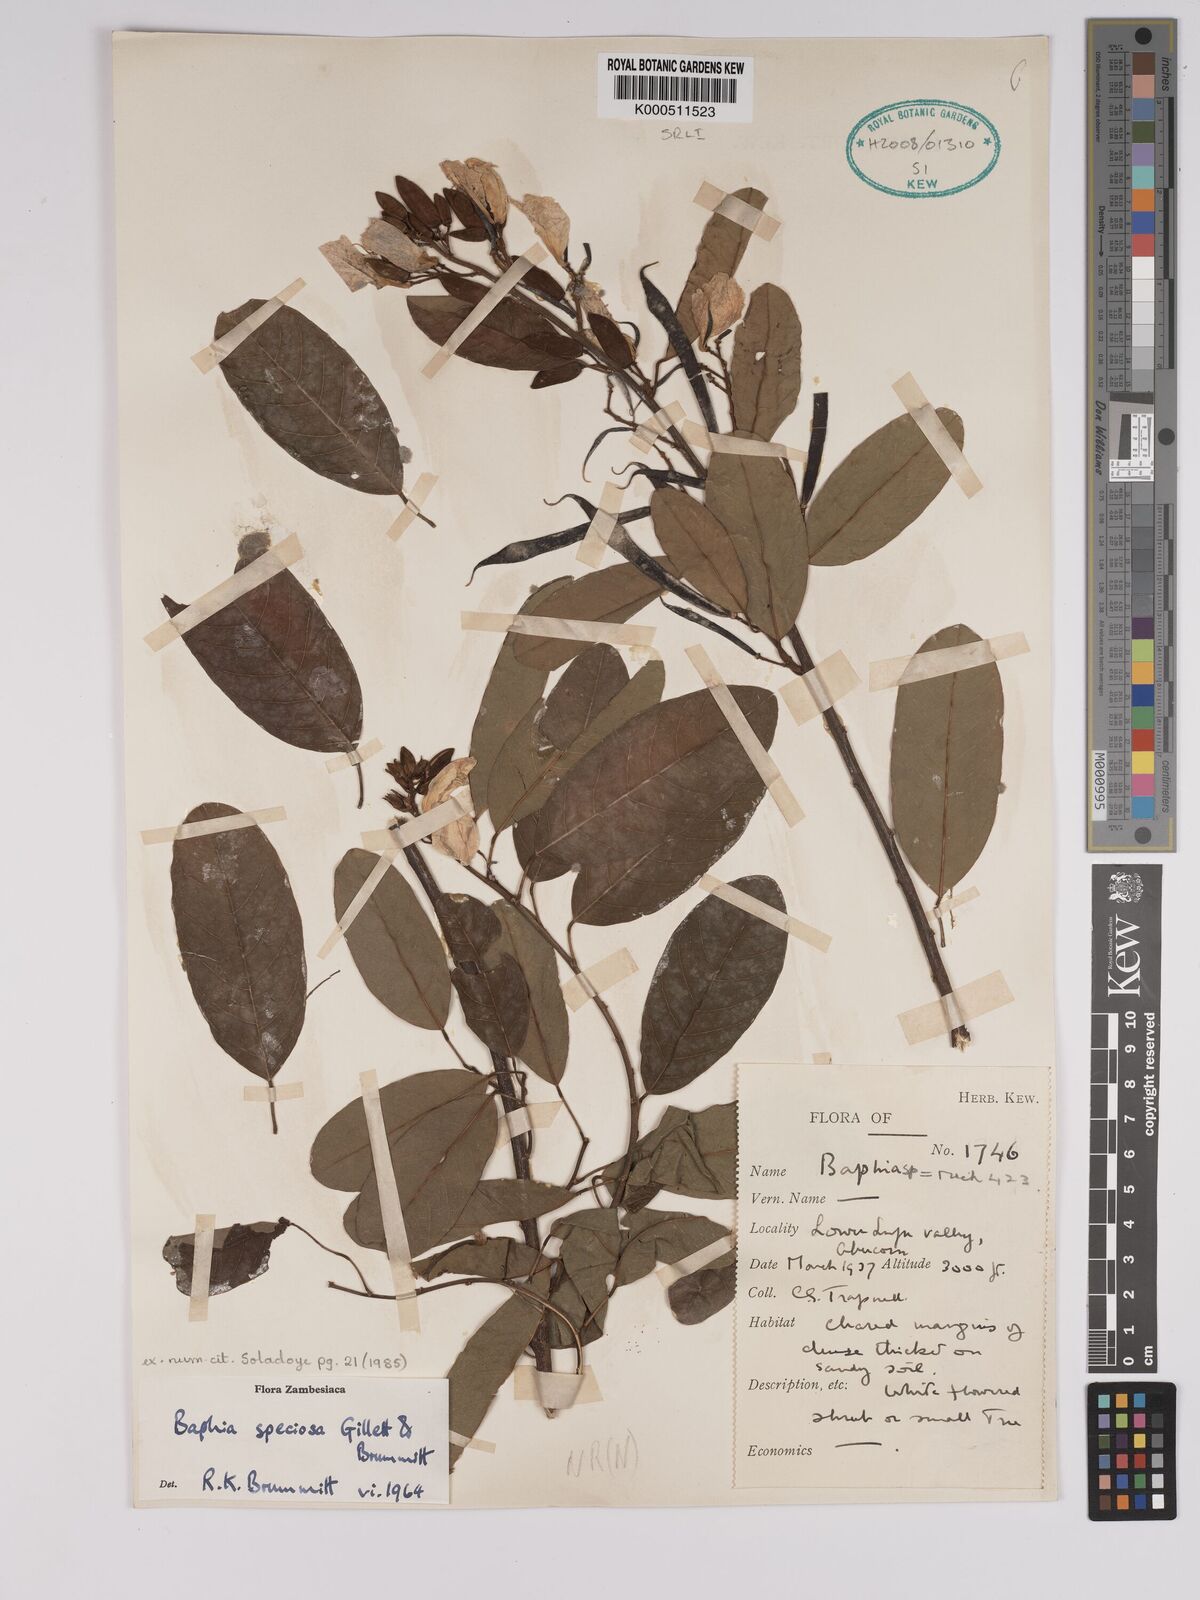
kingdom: Plantae
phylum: Tracheophyta
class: Magnoliopsida
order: Fabales
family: Fabaceae
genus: Baphia
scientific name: Baphia speciosa
